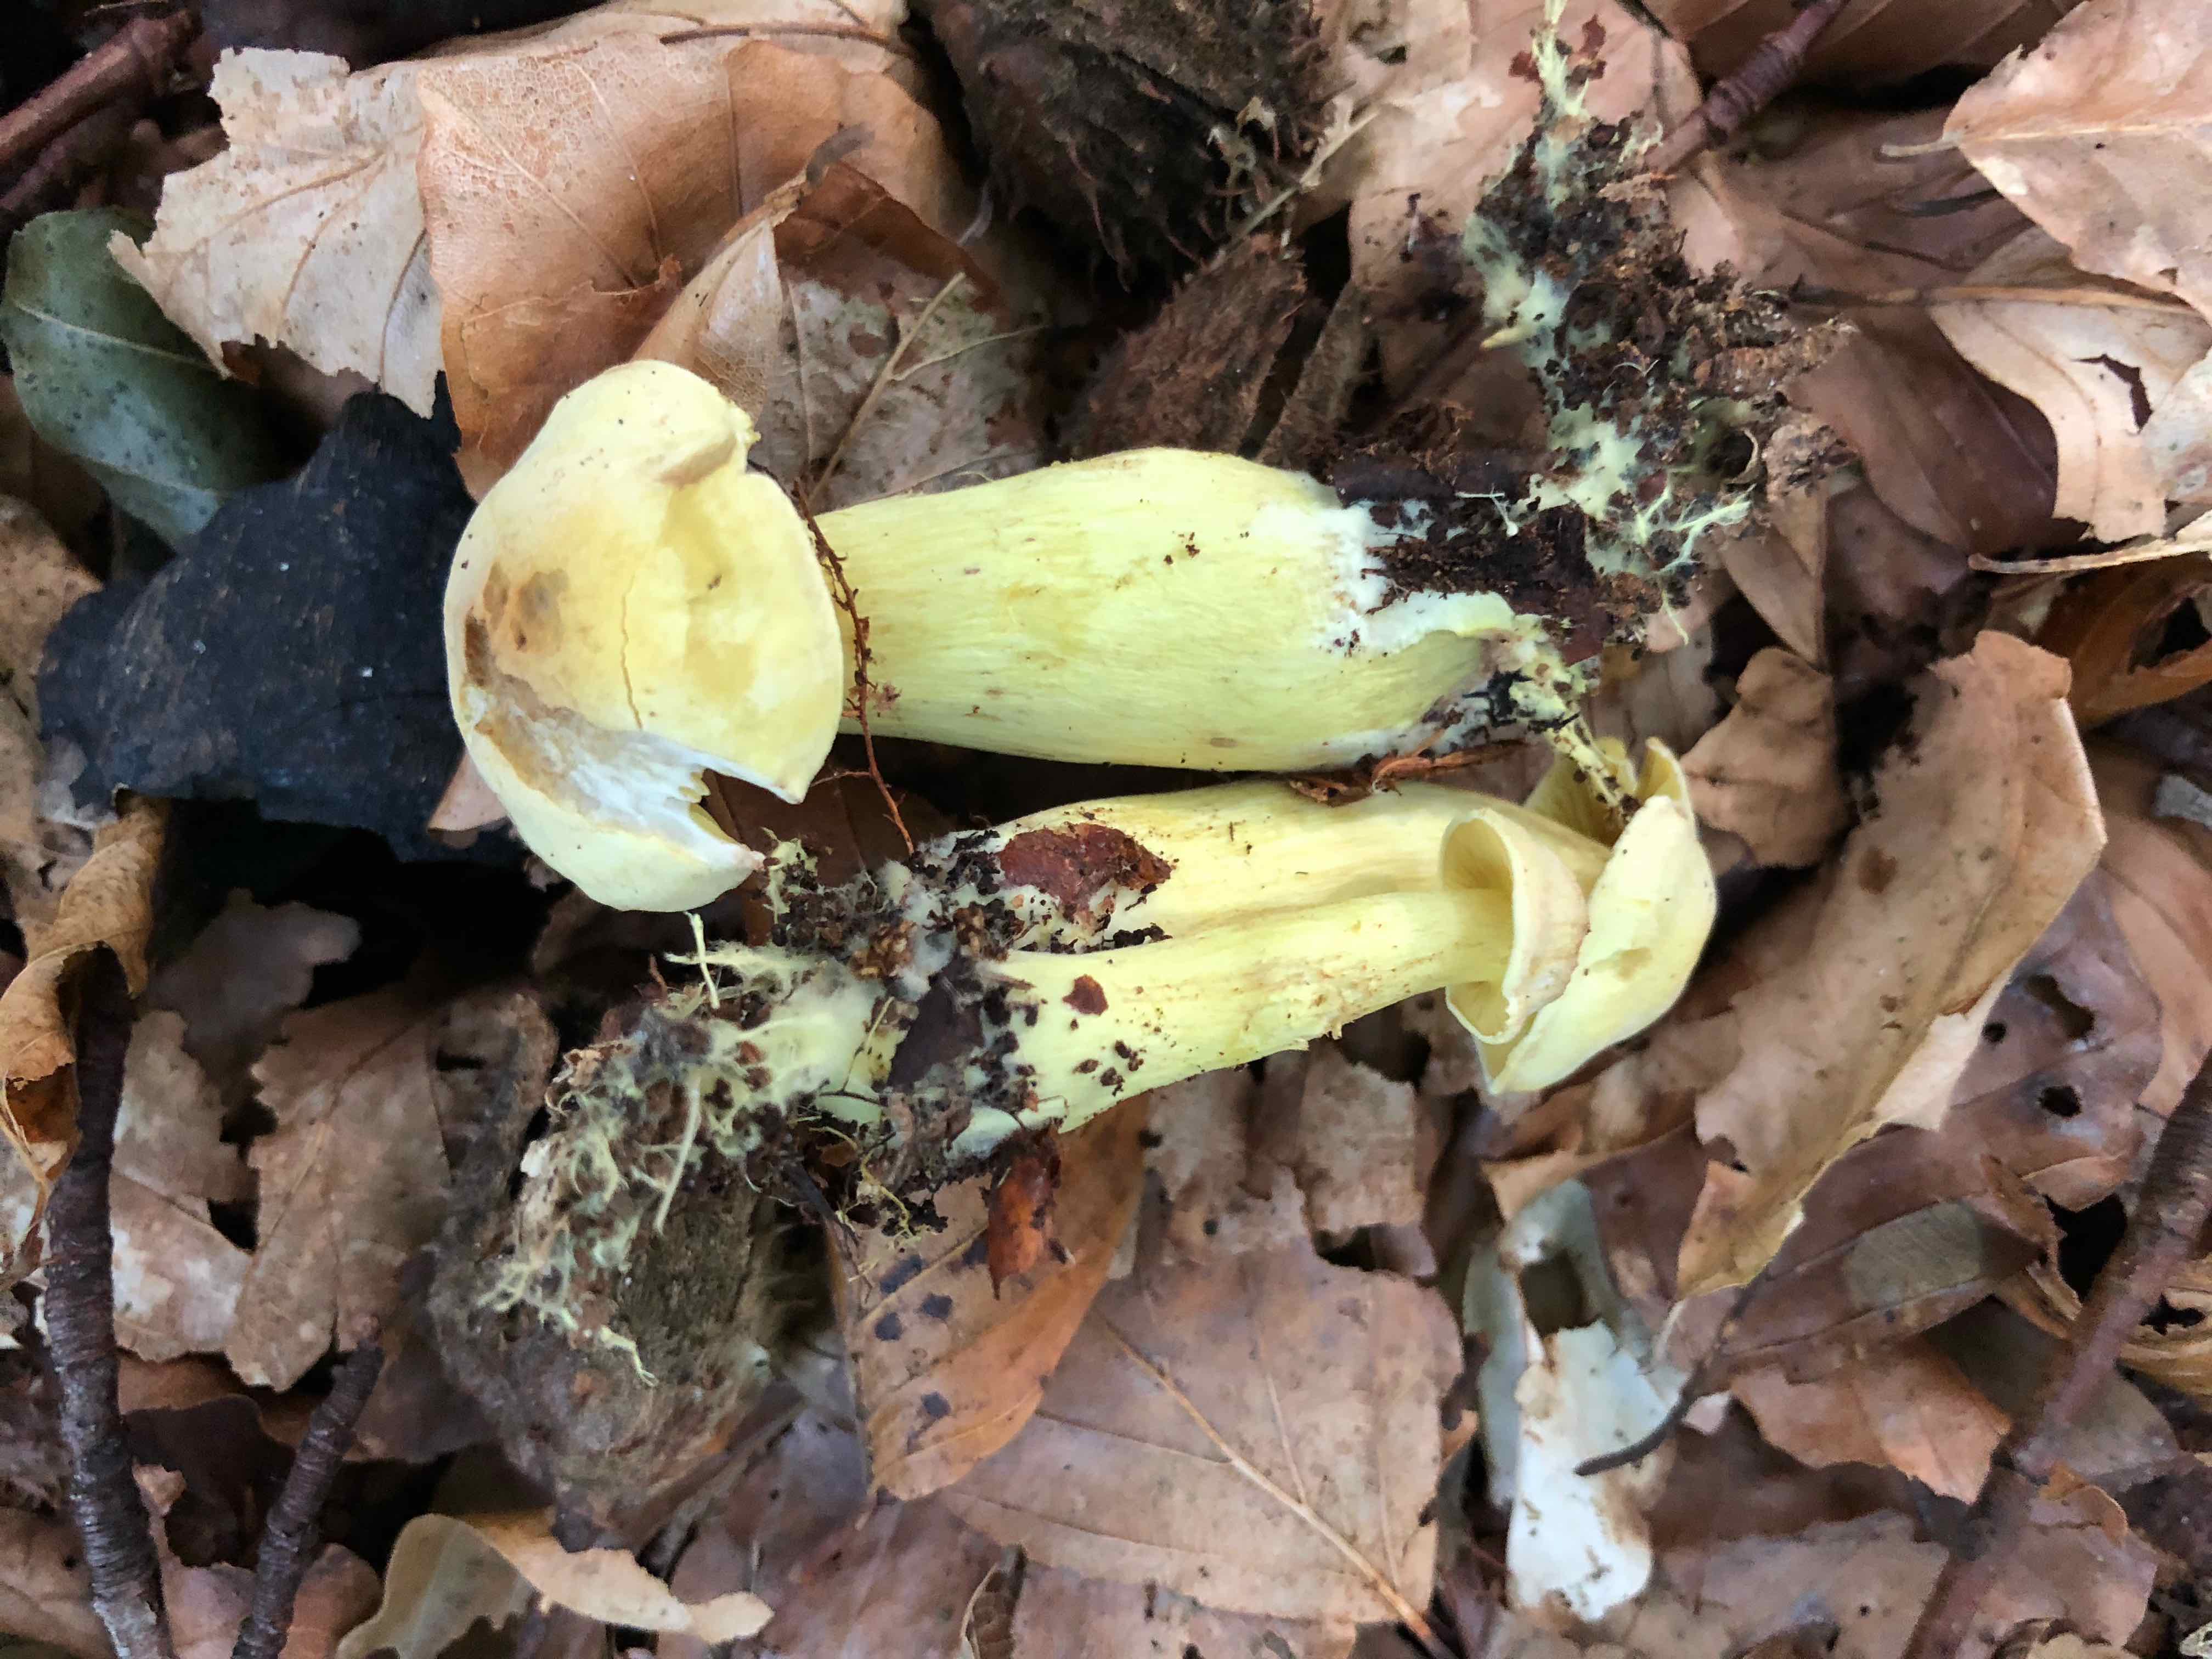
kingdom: Fungi
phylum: Basidiomycota
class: Agaricomycetes
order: Agaricales
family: Tricholomataceae
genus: Tricholoma
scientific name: Tricholoma sulphureum
